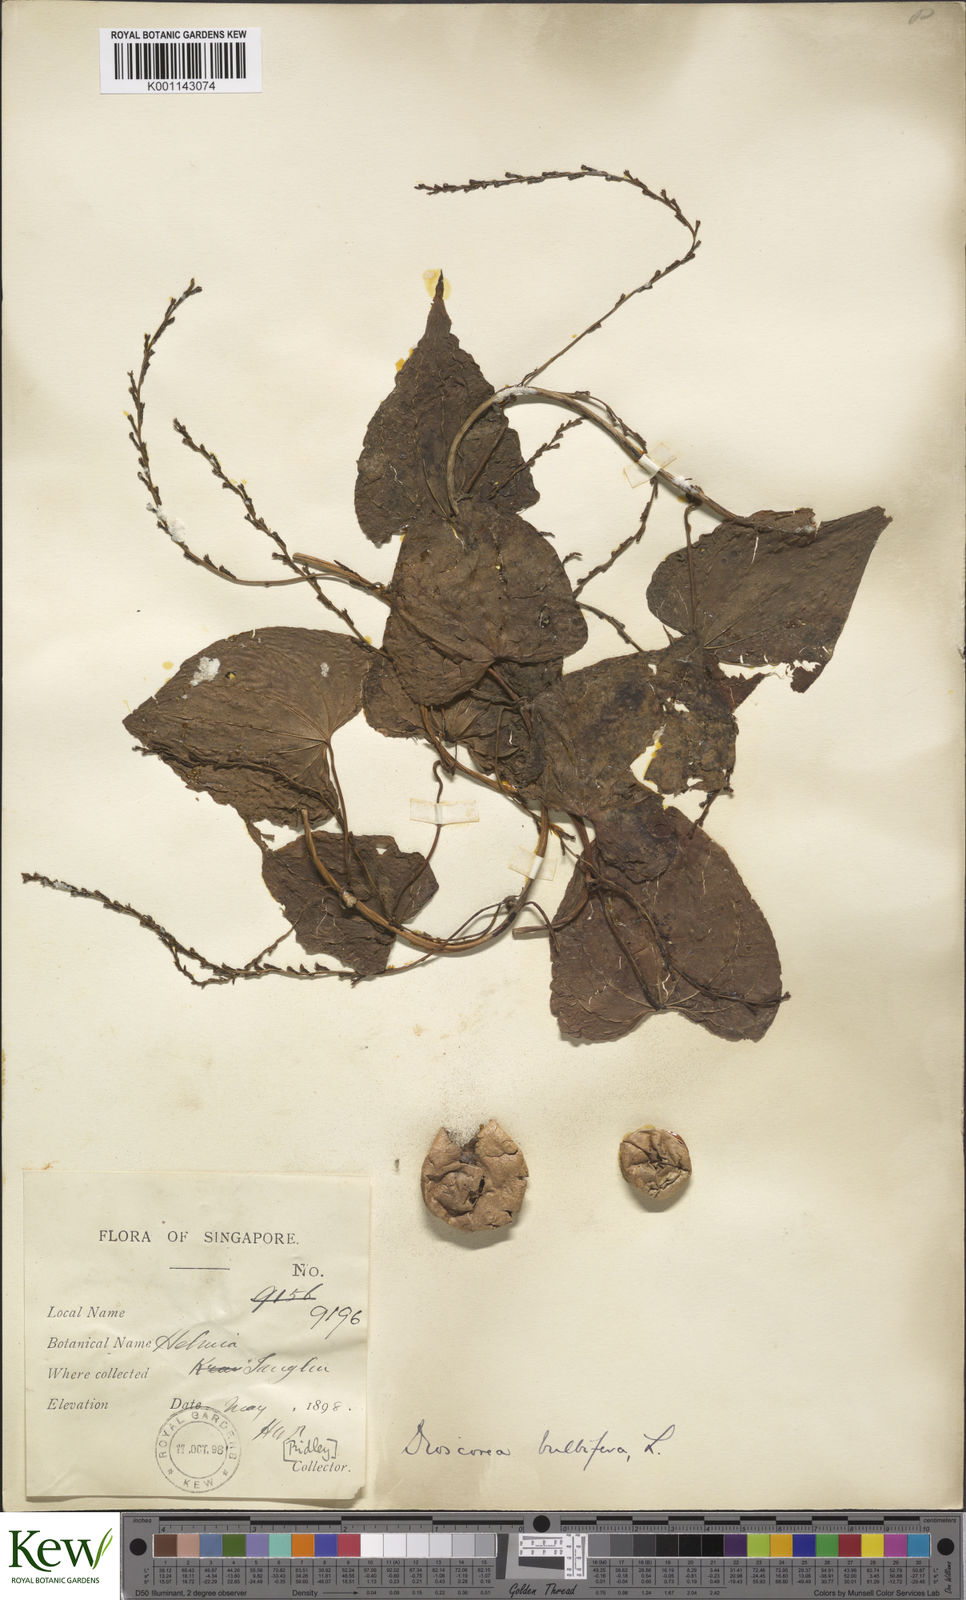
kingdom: Plantae
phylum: Tracheophyta
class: Liliopsida
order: Dioscoreales
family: Dioscoreaceae
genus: Dioscorea
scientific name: Dioscorea bulbifera
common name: Air yam
